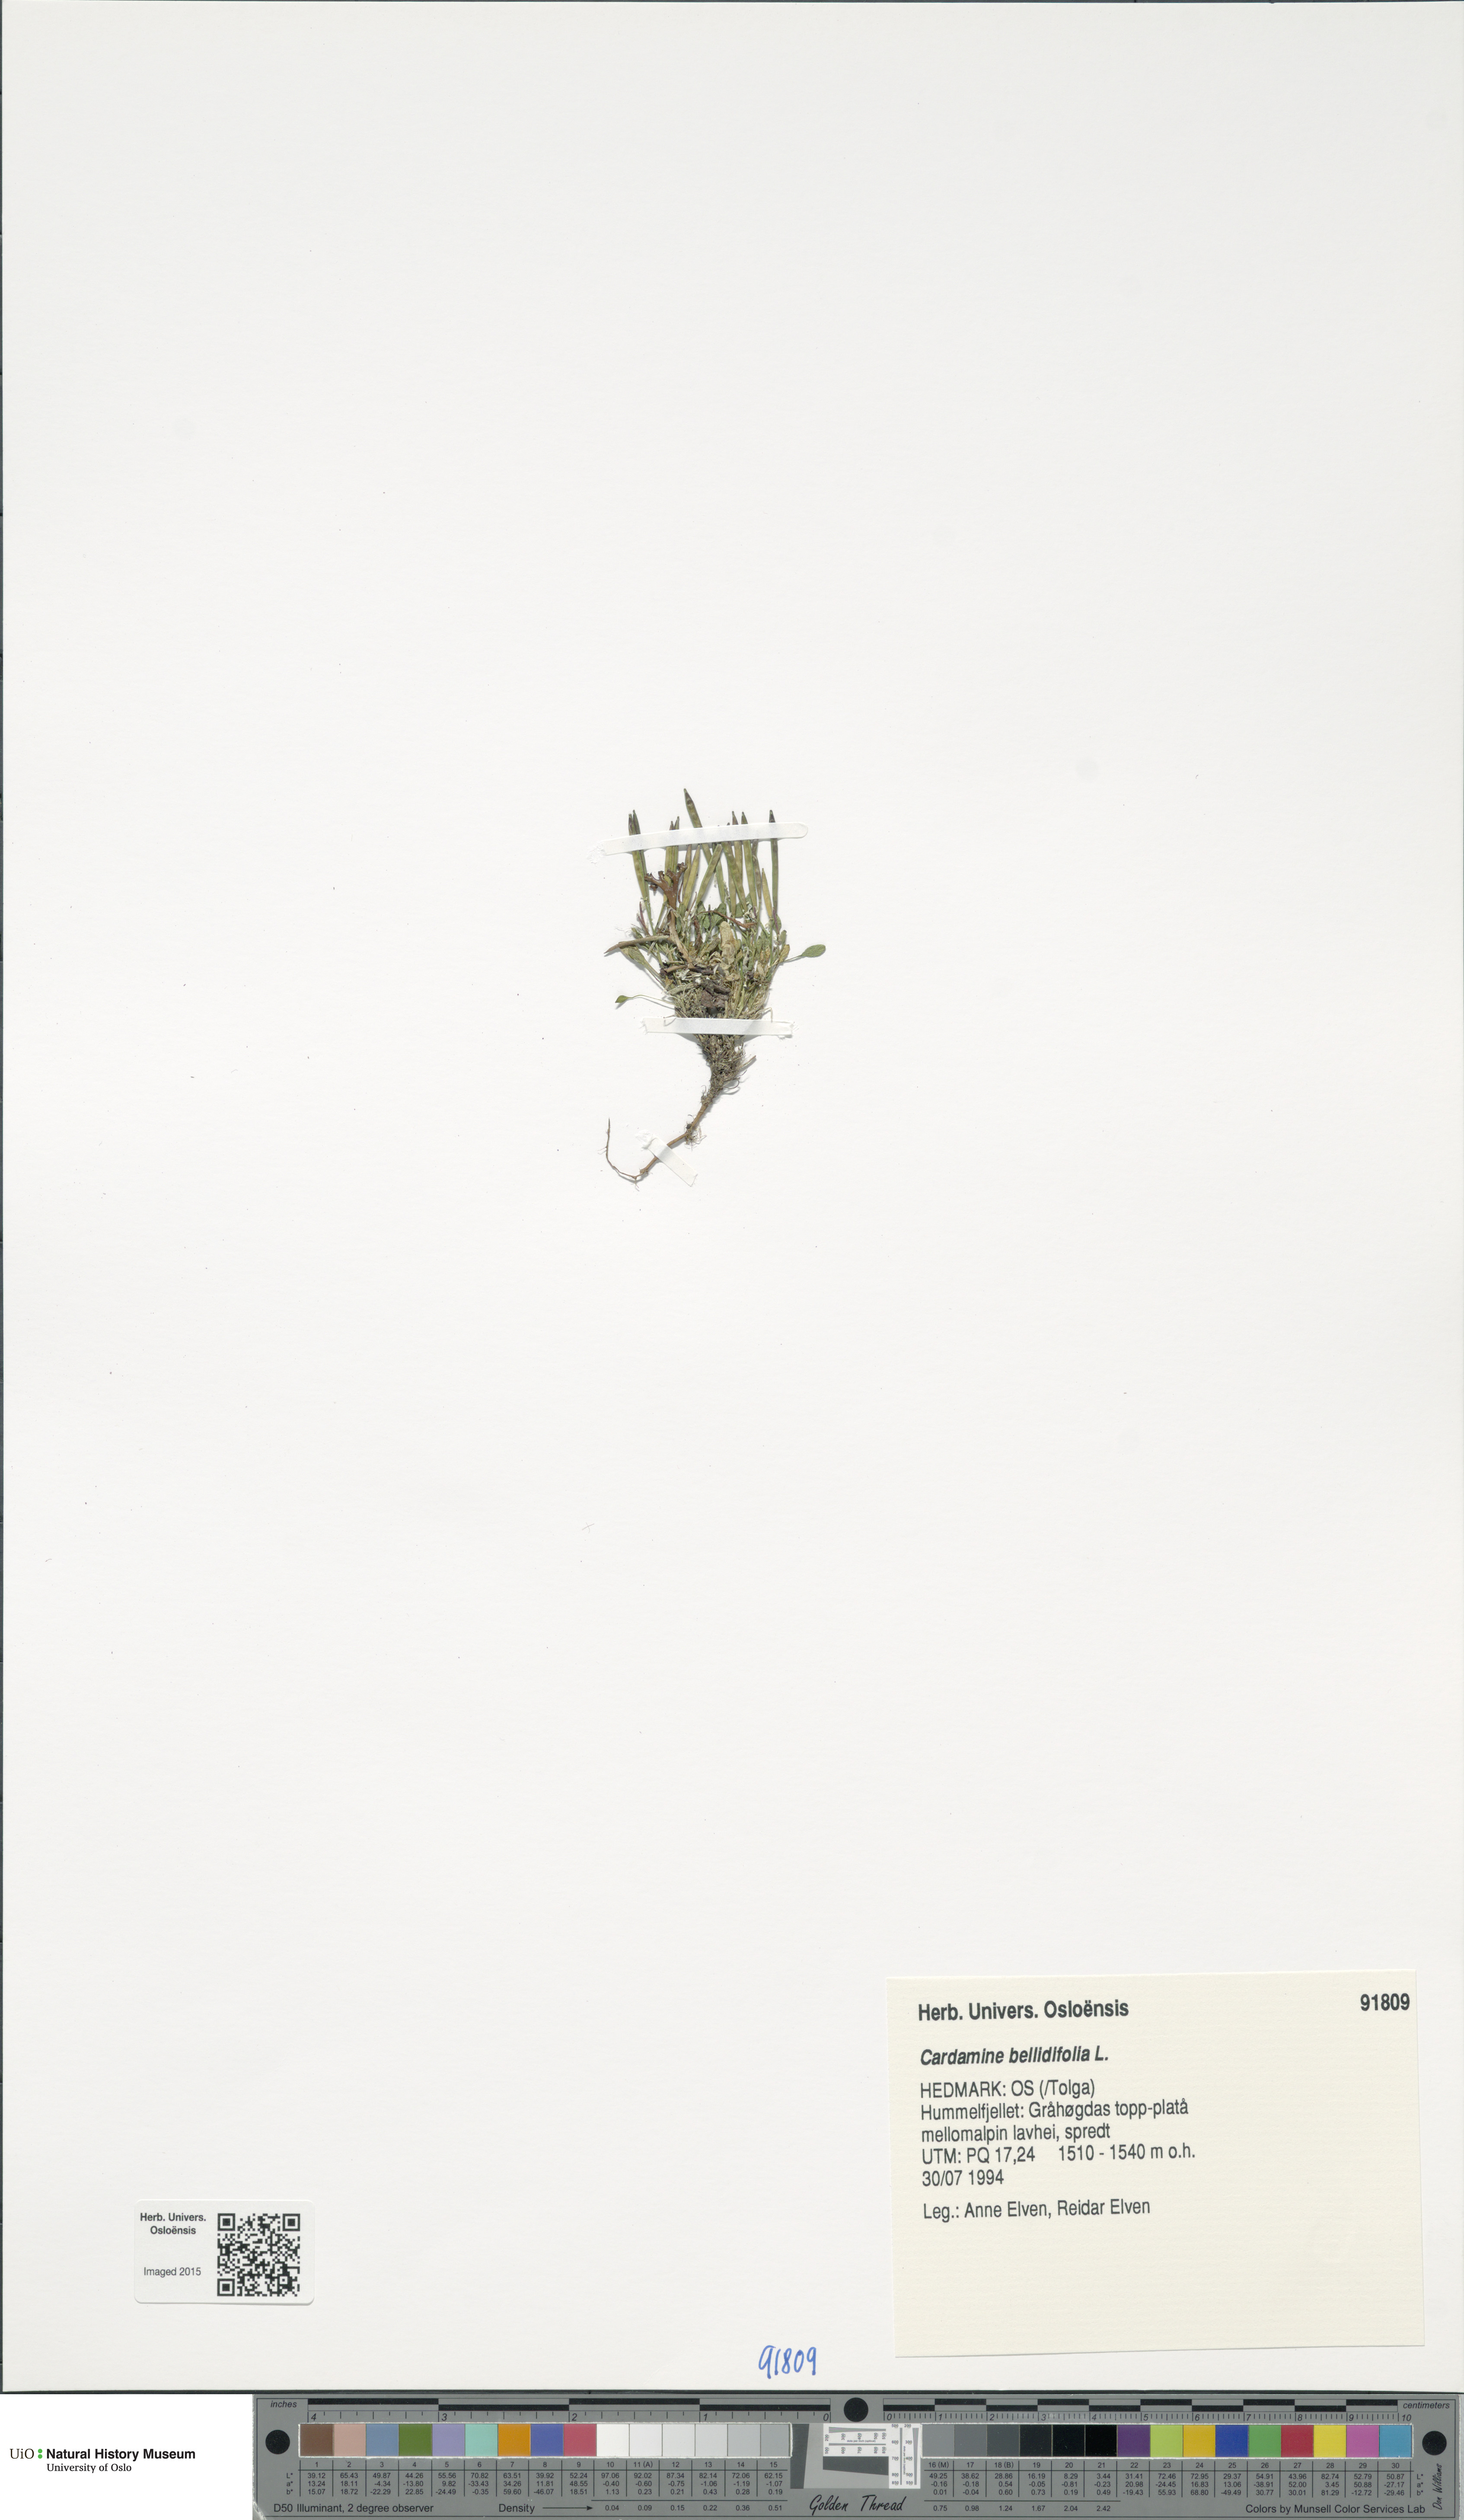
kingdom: Plantae
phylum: Tracheophyta
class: Magnoliopsida
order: Brassicales
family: Brassicaceae
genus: Cardamine
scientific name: Cardamine bellidifolia
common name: Alpine bittercress
